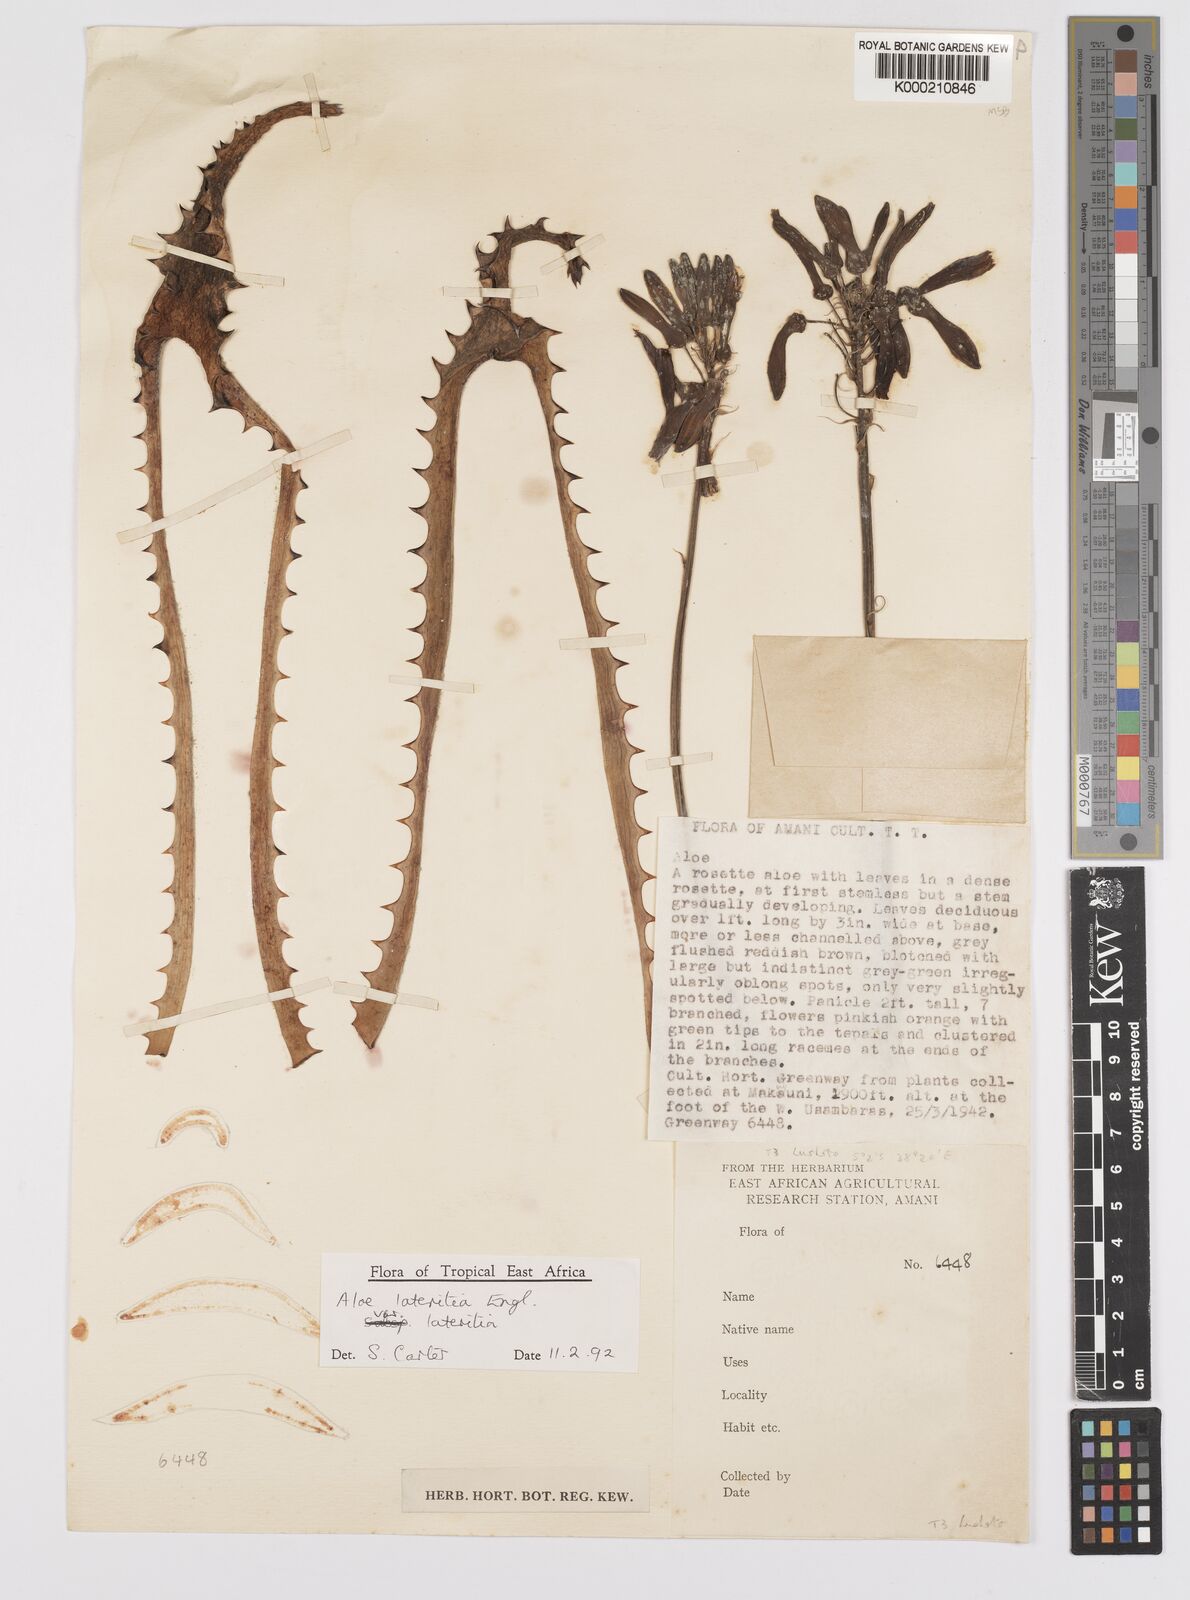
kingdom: Plantae
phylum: Tracheophyta
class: Liliopsida
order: Asparagales
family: Asphodelaceae
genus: Aloe
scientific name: Aloe lateritia
